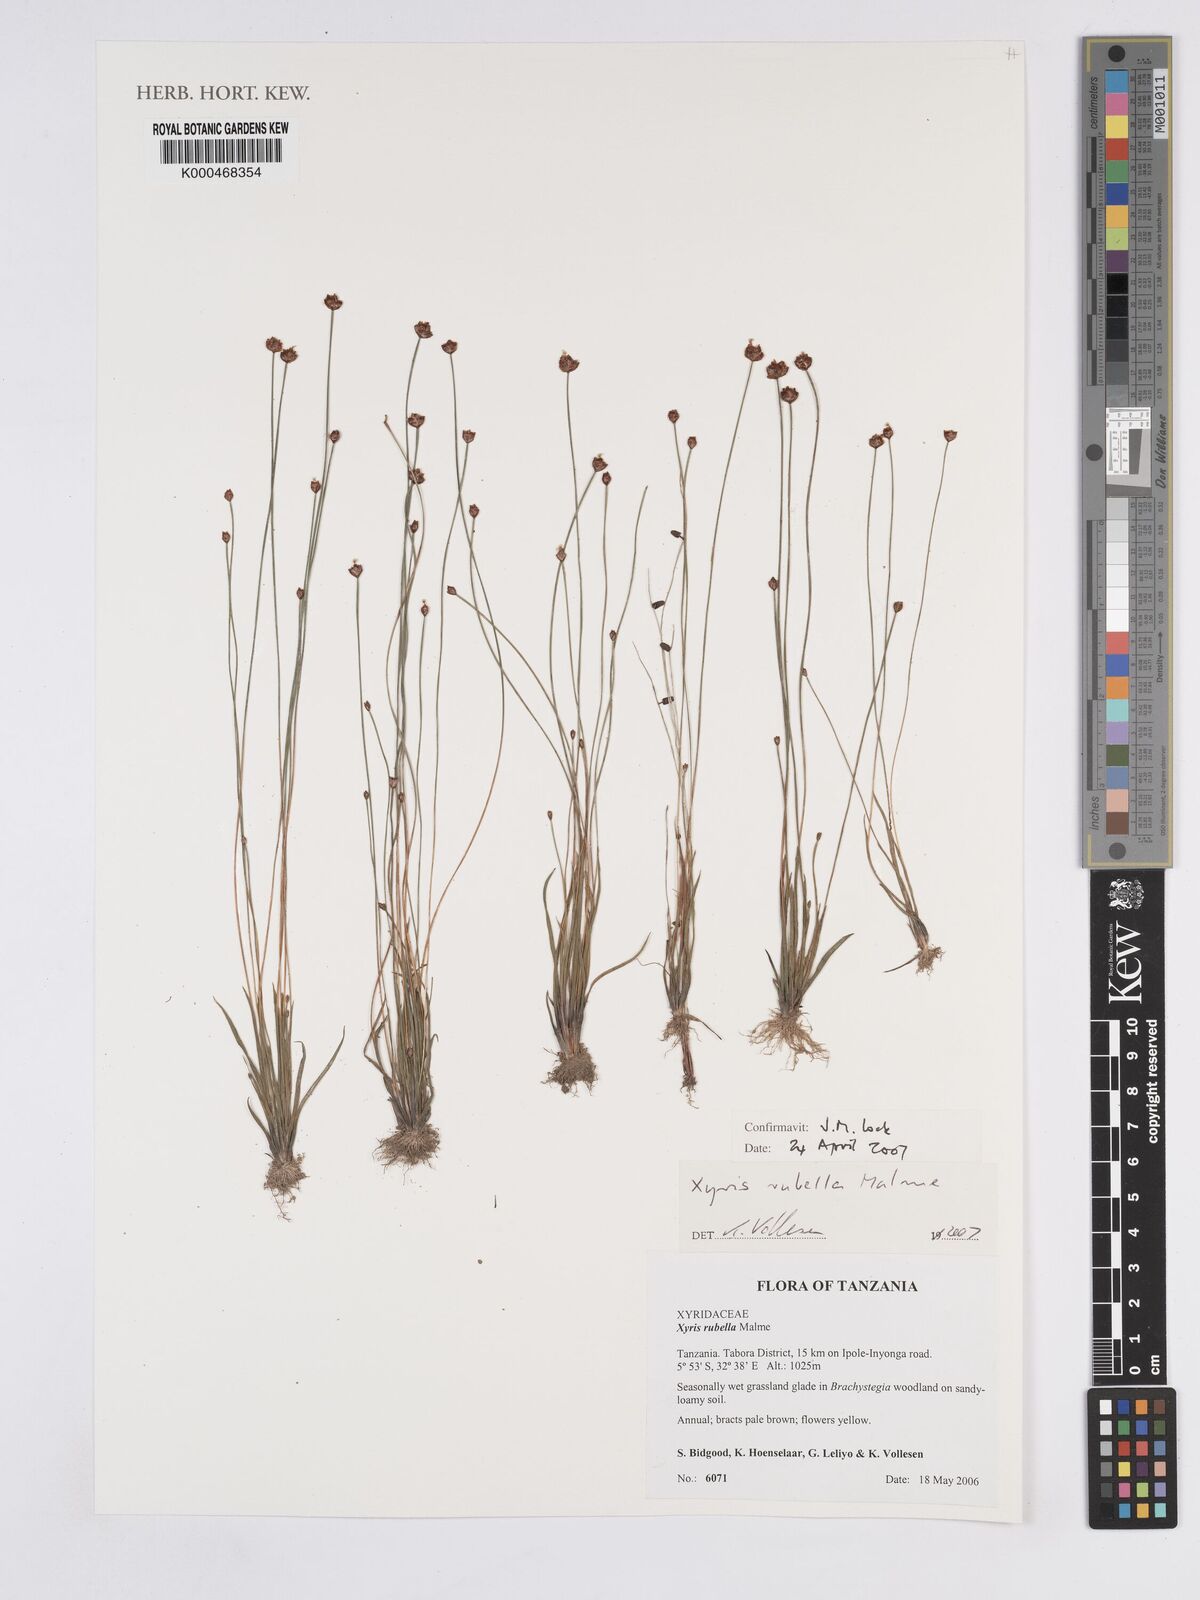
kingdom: Plantae
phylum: Tracheophyta
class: Liliopsida
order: Poales
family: Xyridaceae
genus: Xyris
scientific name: Xyris rubella
